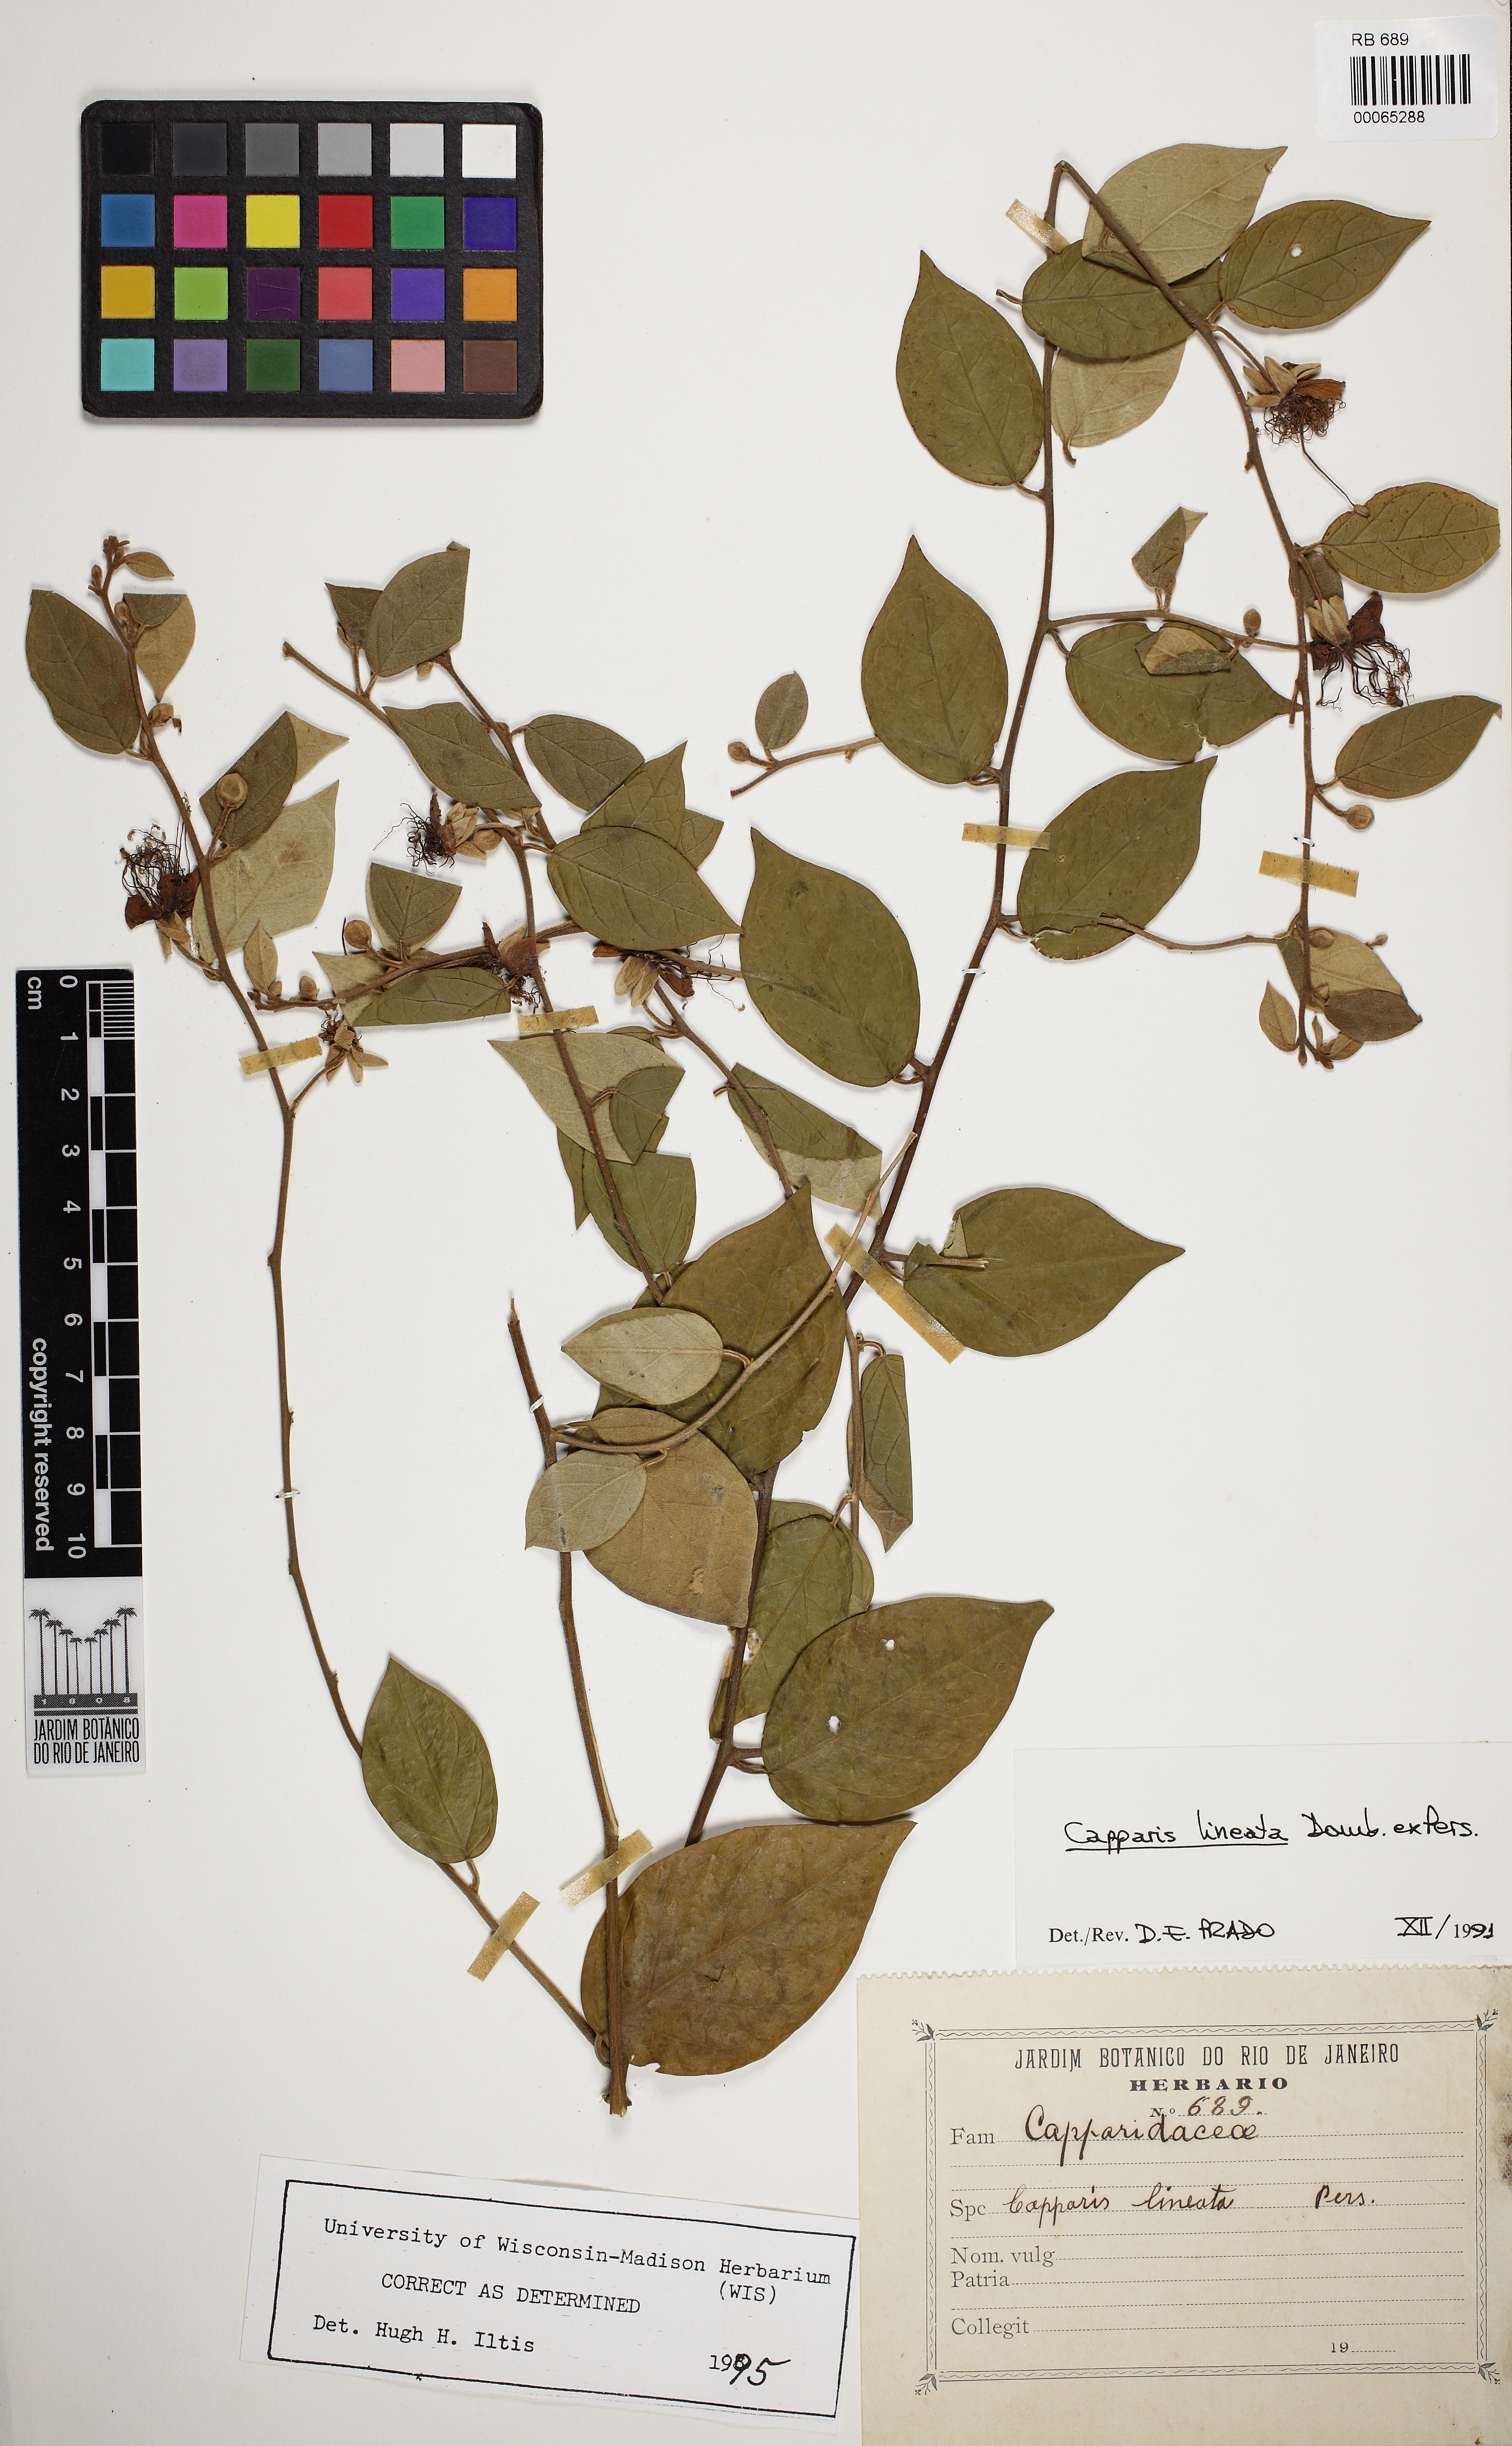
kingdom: Plantae
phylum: Tracheophyta
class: Magnoliopsida
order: Brassicales
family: Capparaceae
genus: Mesocapparis
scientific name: Mesocapparis lineata
